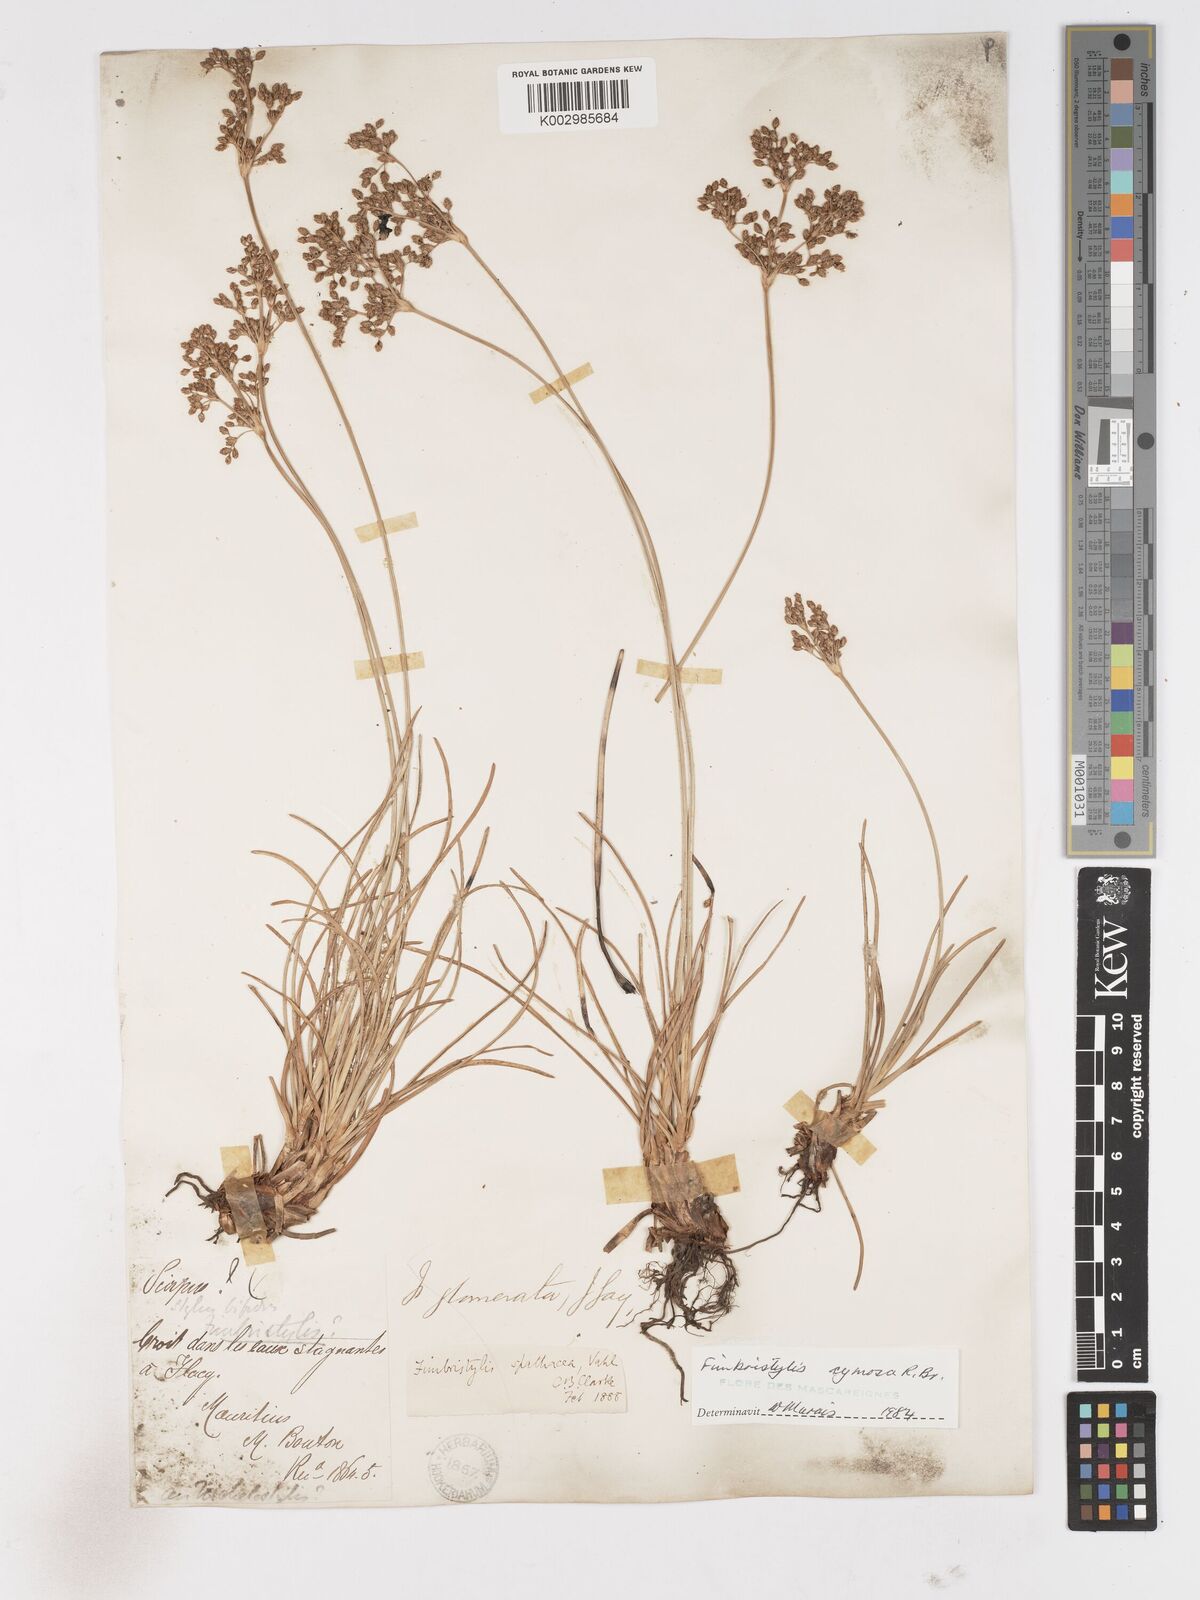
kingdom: Plantae
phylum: Tracheophyta
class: Liliopsida
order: Poales
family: Cyperaceae
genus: Fimbristylis
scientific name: Fimbristylis cymosa
